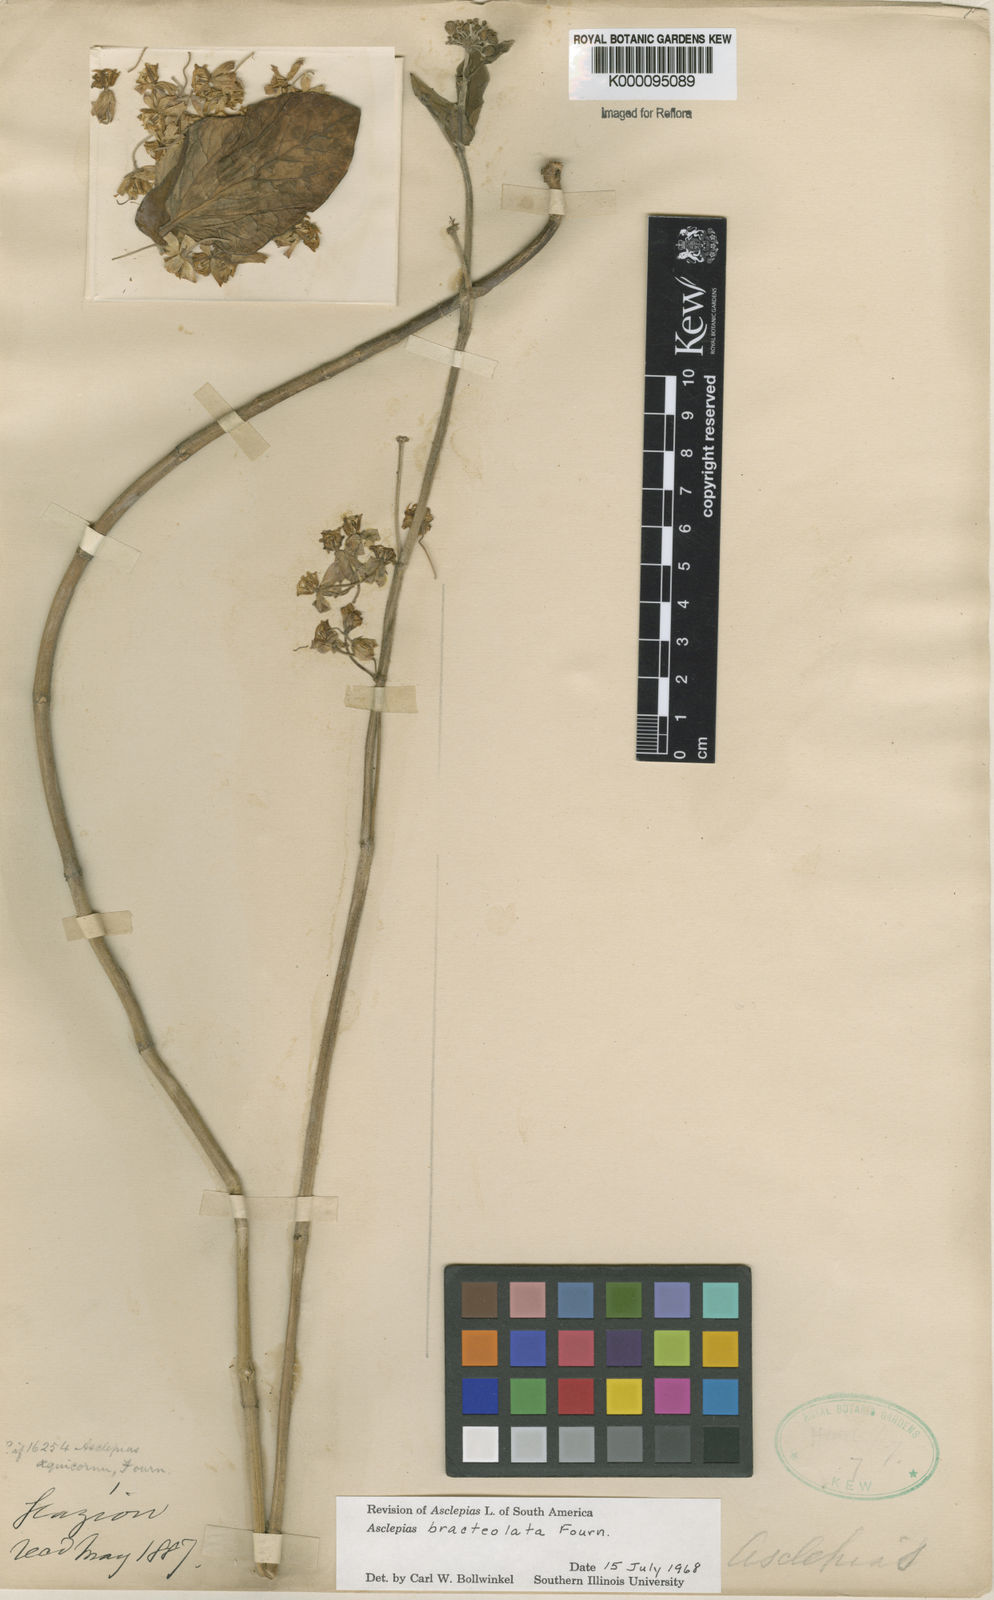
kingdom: Plantae
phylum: Tracheophyta
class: Magnoliopsida
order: Gentianales
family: Apocynaceae
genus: Asclepias
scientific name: Asclepias bracteolata
